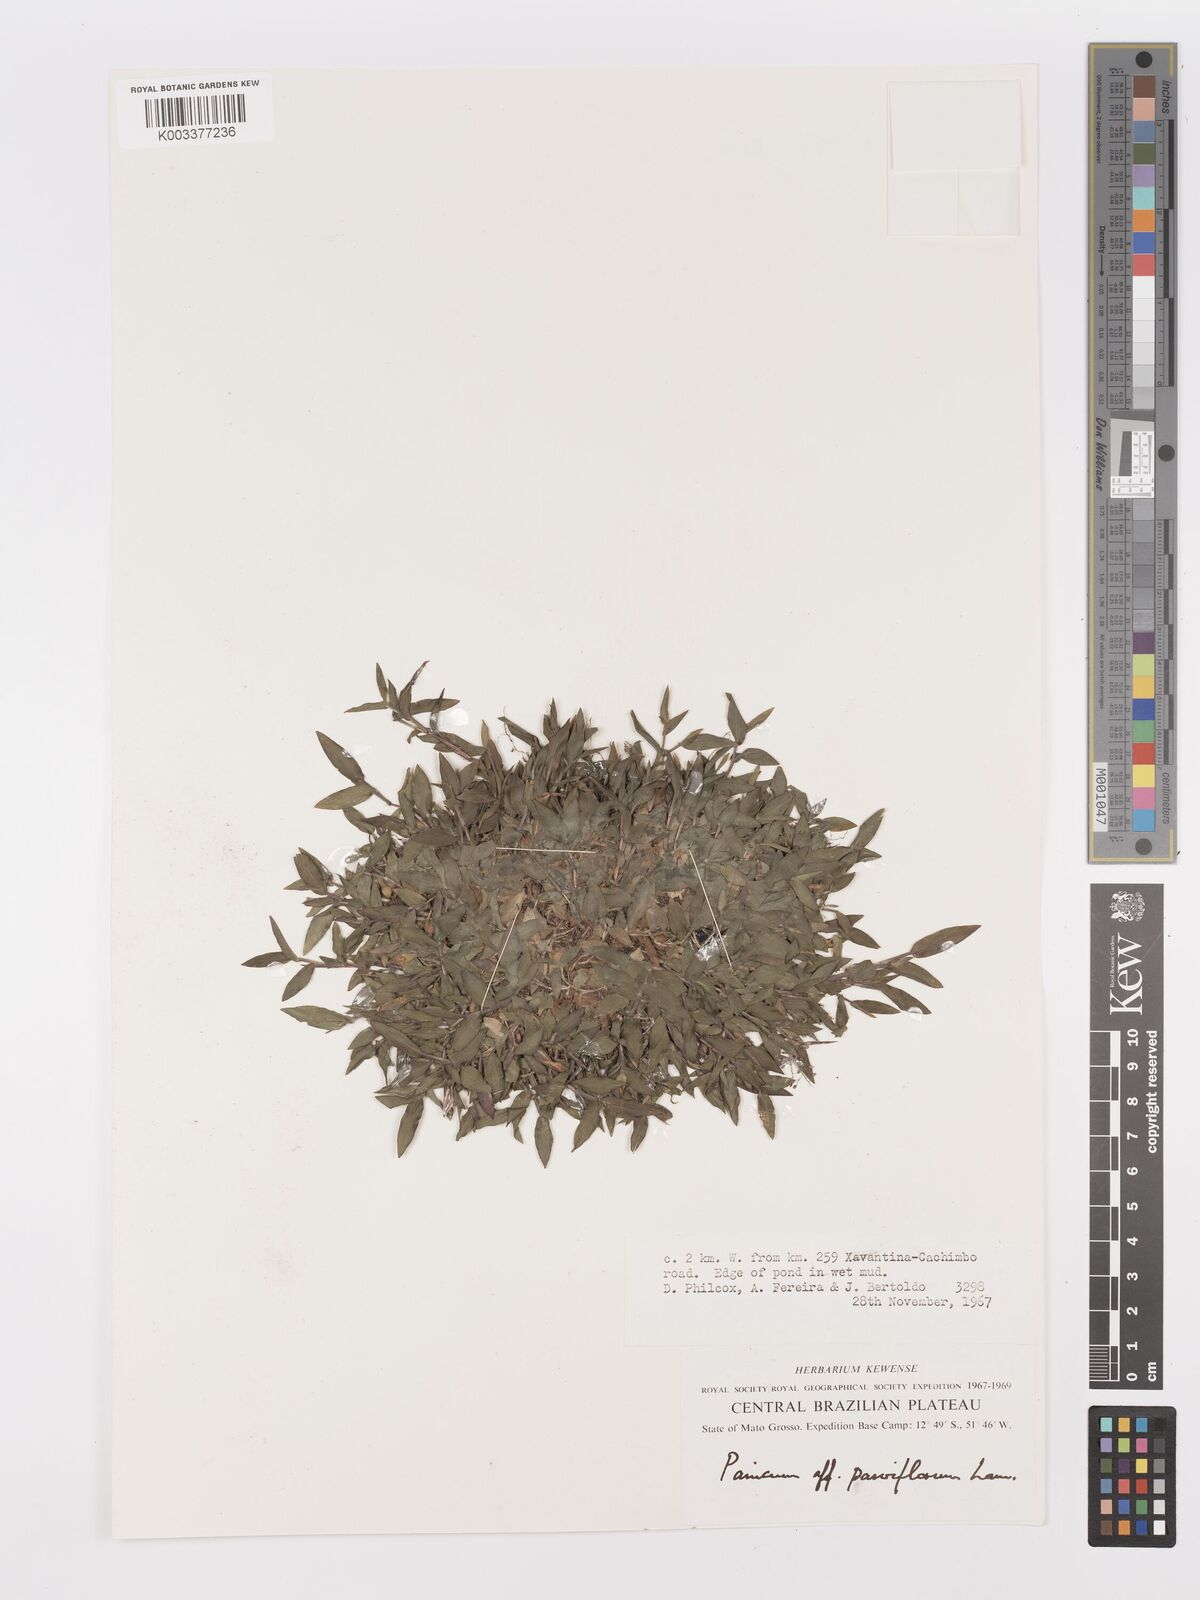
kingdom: Plantae
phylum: Tracheophyta
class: Liliopsida
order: Poales
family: Poaceae
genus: Trichanthecium
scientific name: Trichanthecium schwackeanum
